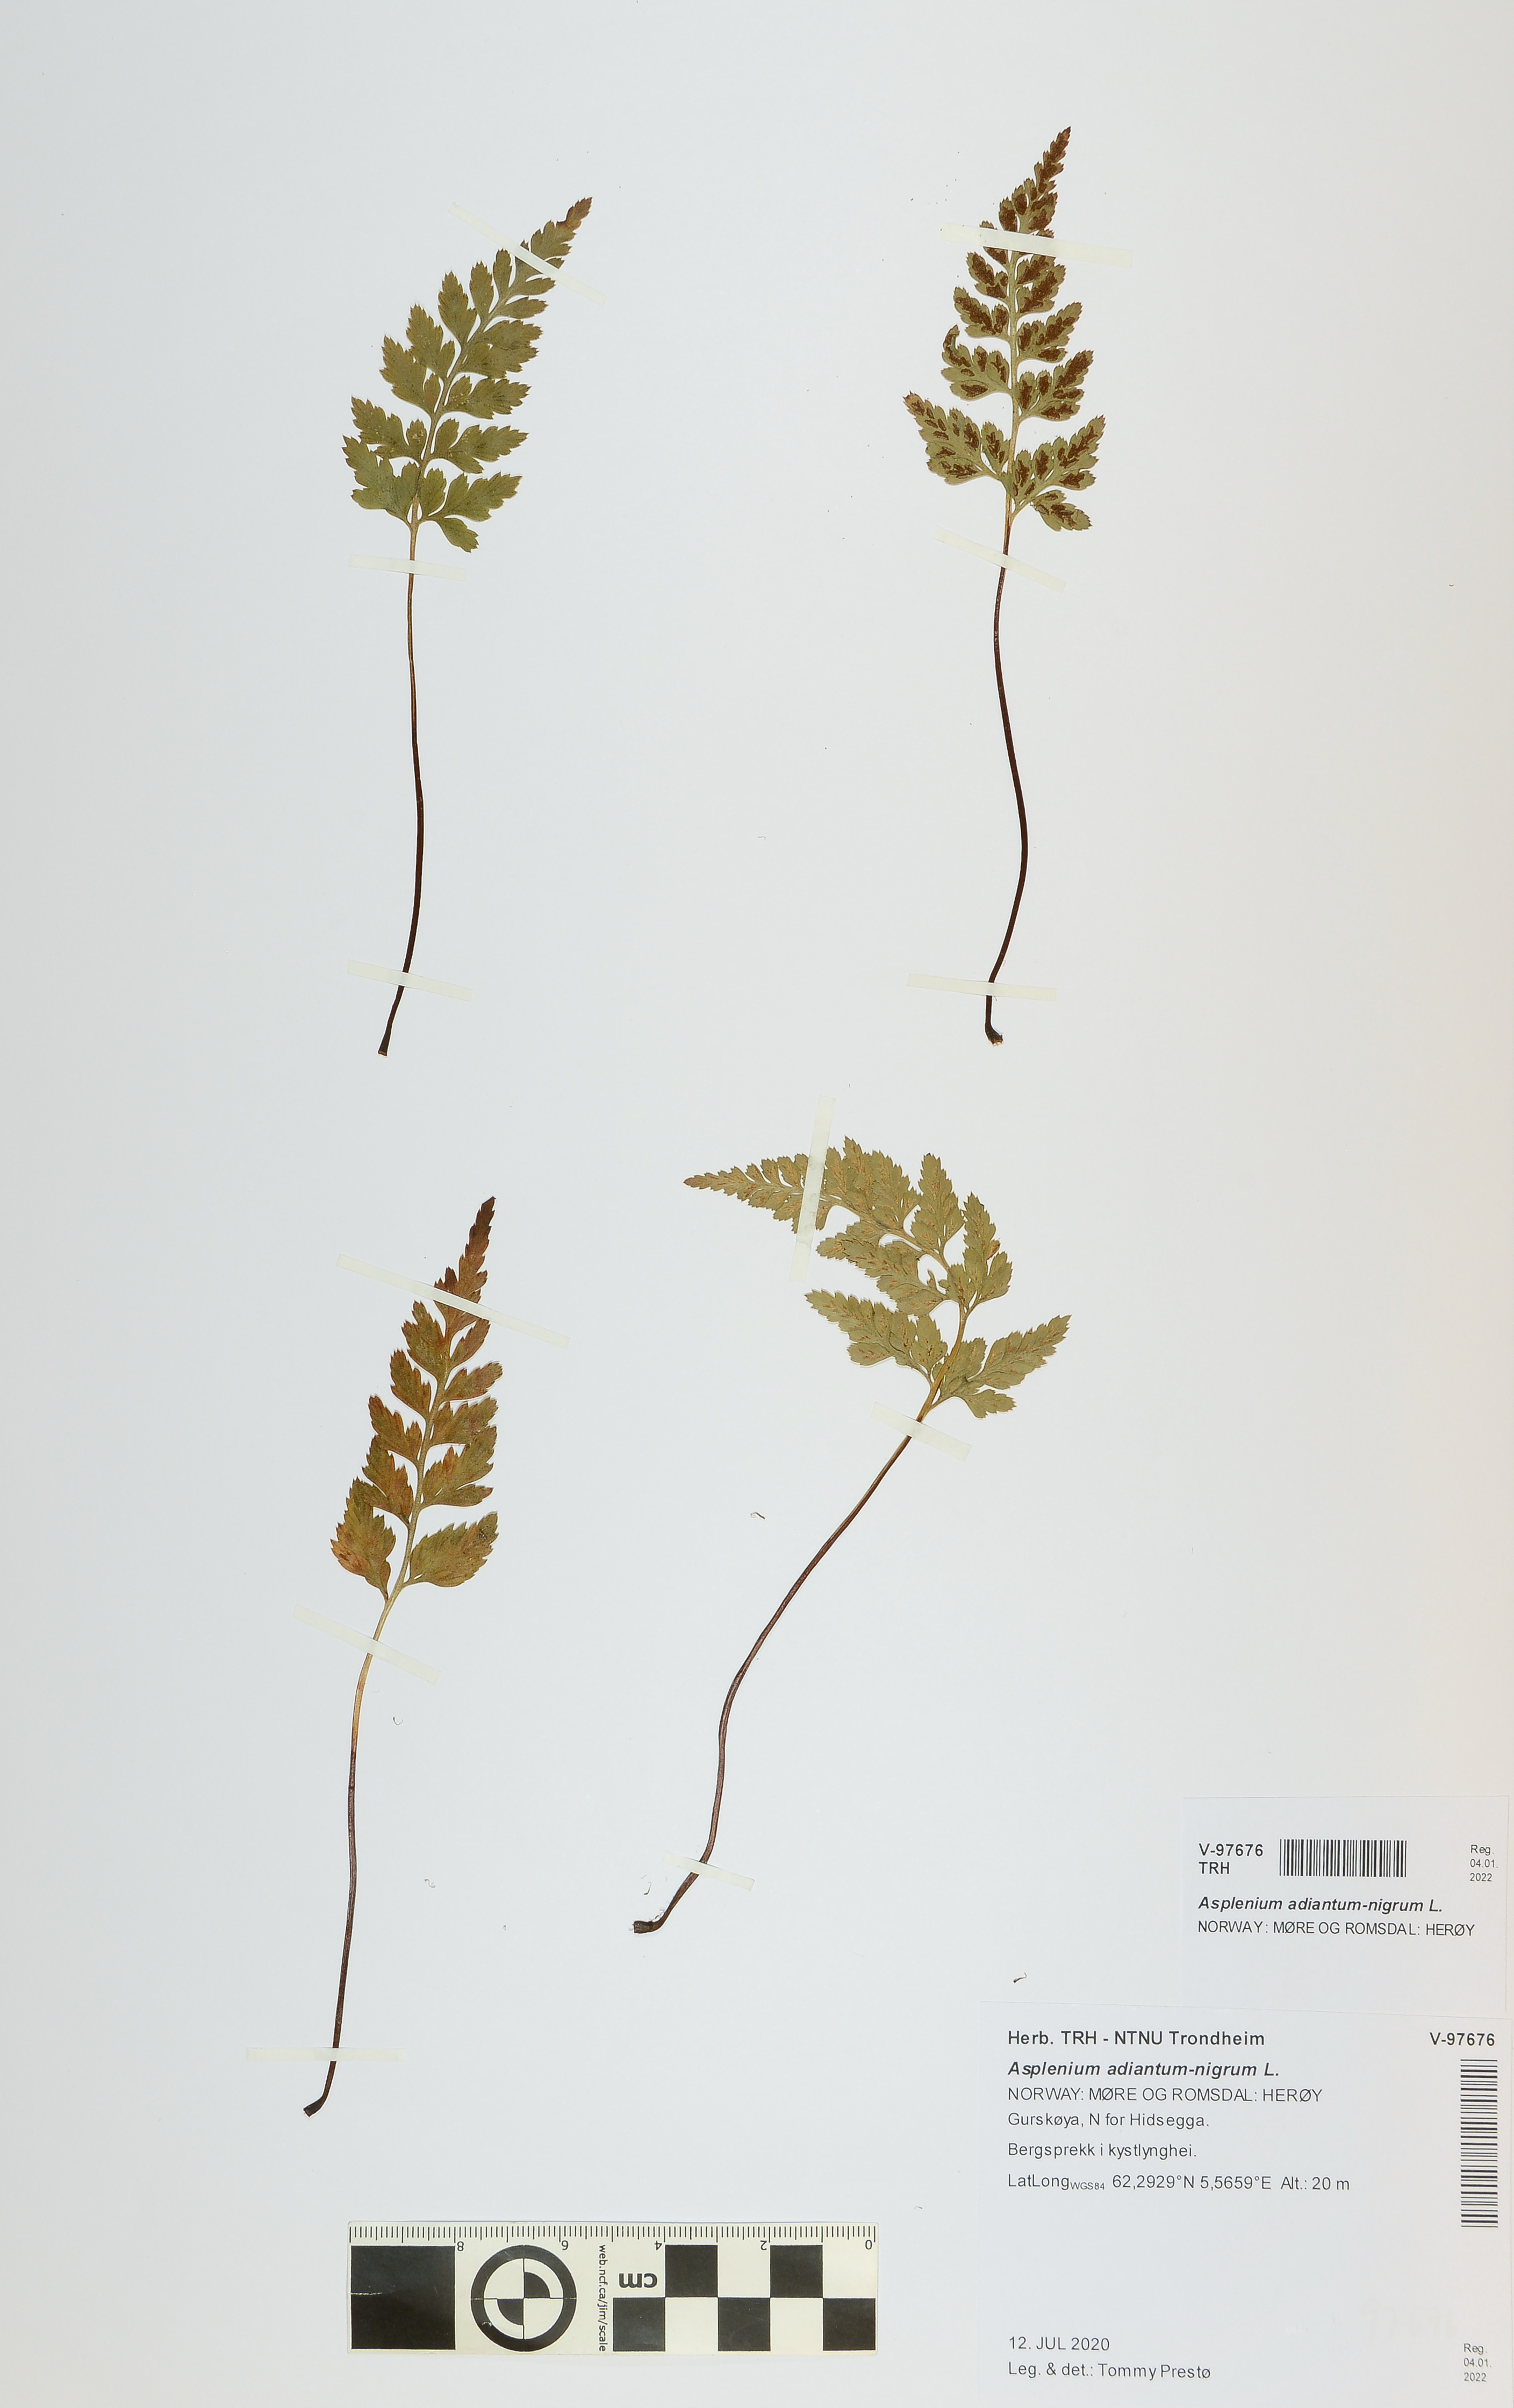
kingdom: Plantae
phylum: Tracheophyta
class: Polypodiopsida
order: Polypodiales
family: Aspleniaceae
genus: Asplenium
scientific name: Asplenium adiantum-nigrum
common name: Black spleenwort
